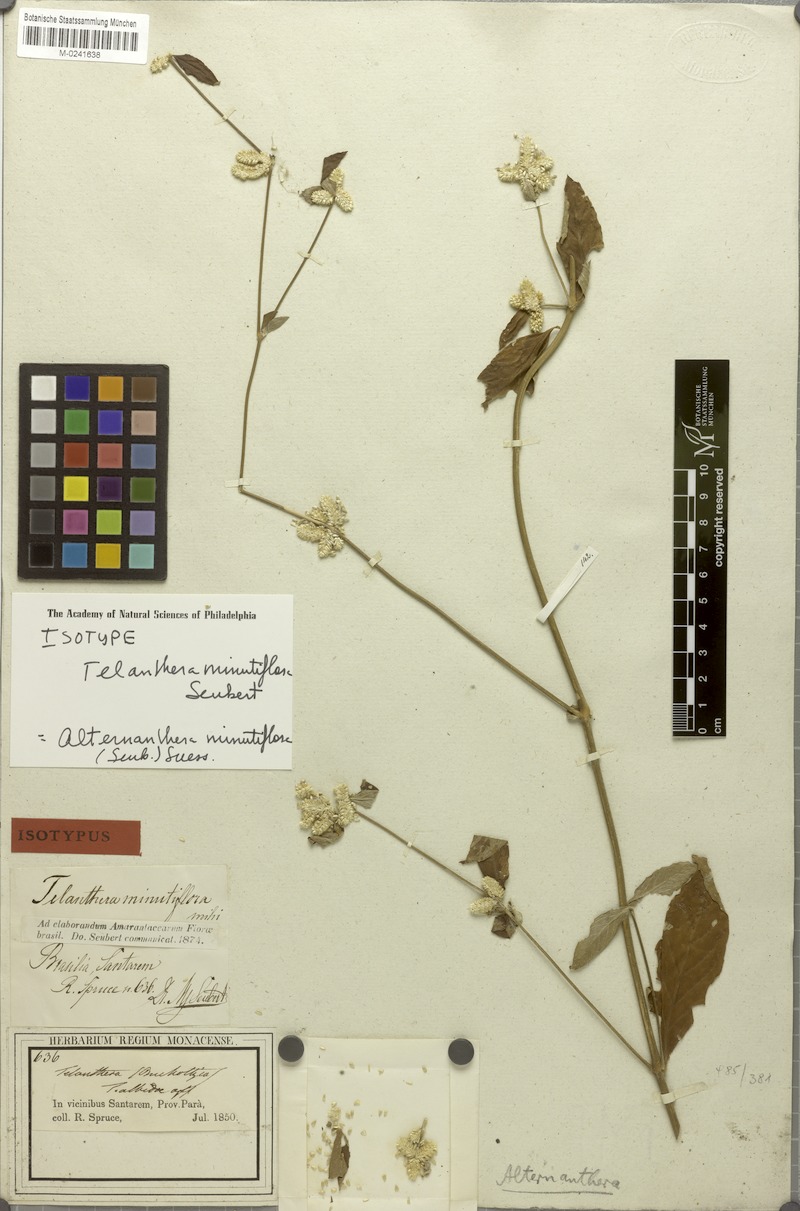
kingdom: Plantae
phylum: Tracheophyta
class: Magnoliopsida
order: Caryophyllales
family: Amaranthaceae
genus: Alternanthera
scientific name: Alternanthera minutiflora
